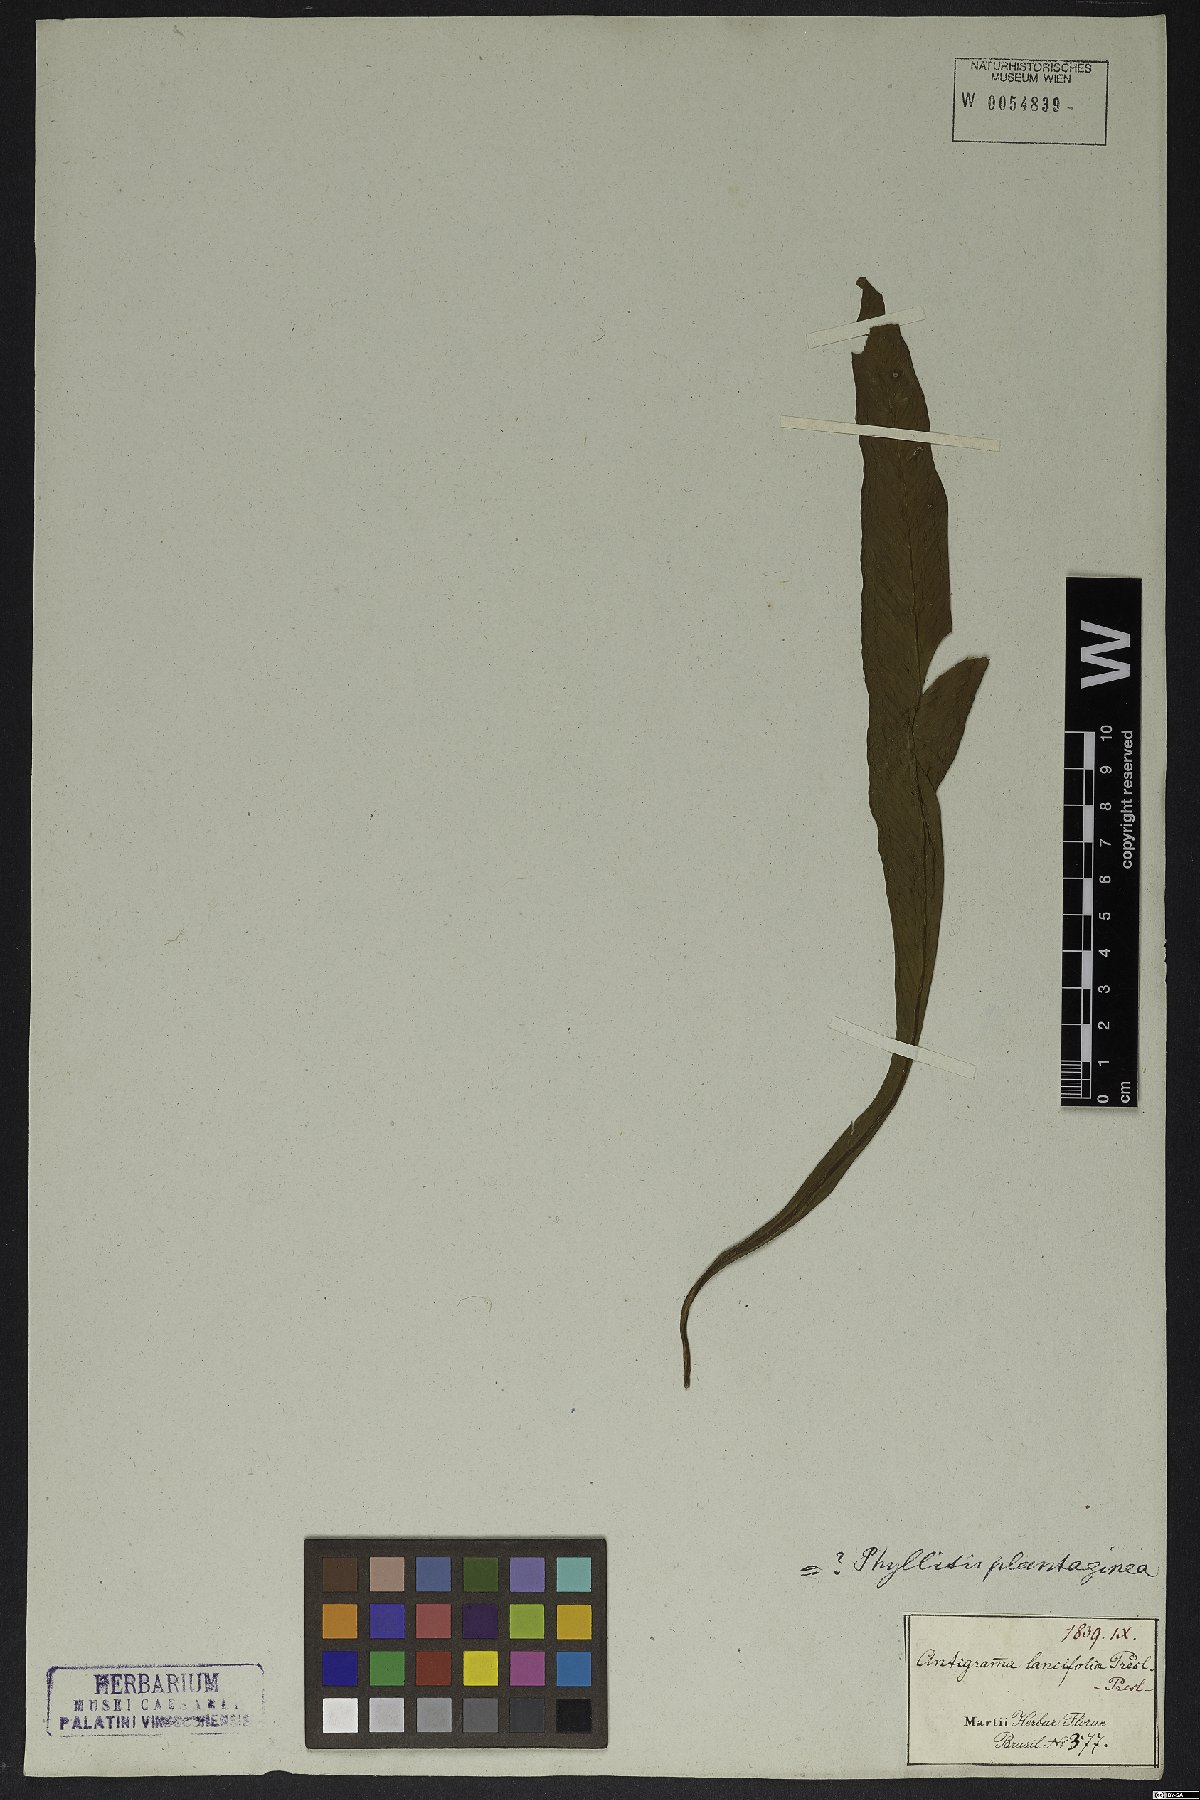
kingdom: Plantae
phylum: Tracheophyta
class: Polypodiopsida
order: Polypodiales
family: Athyriaceae
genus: Diplazium
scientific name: Diplazium plantaginifolium
